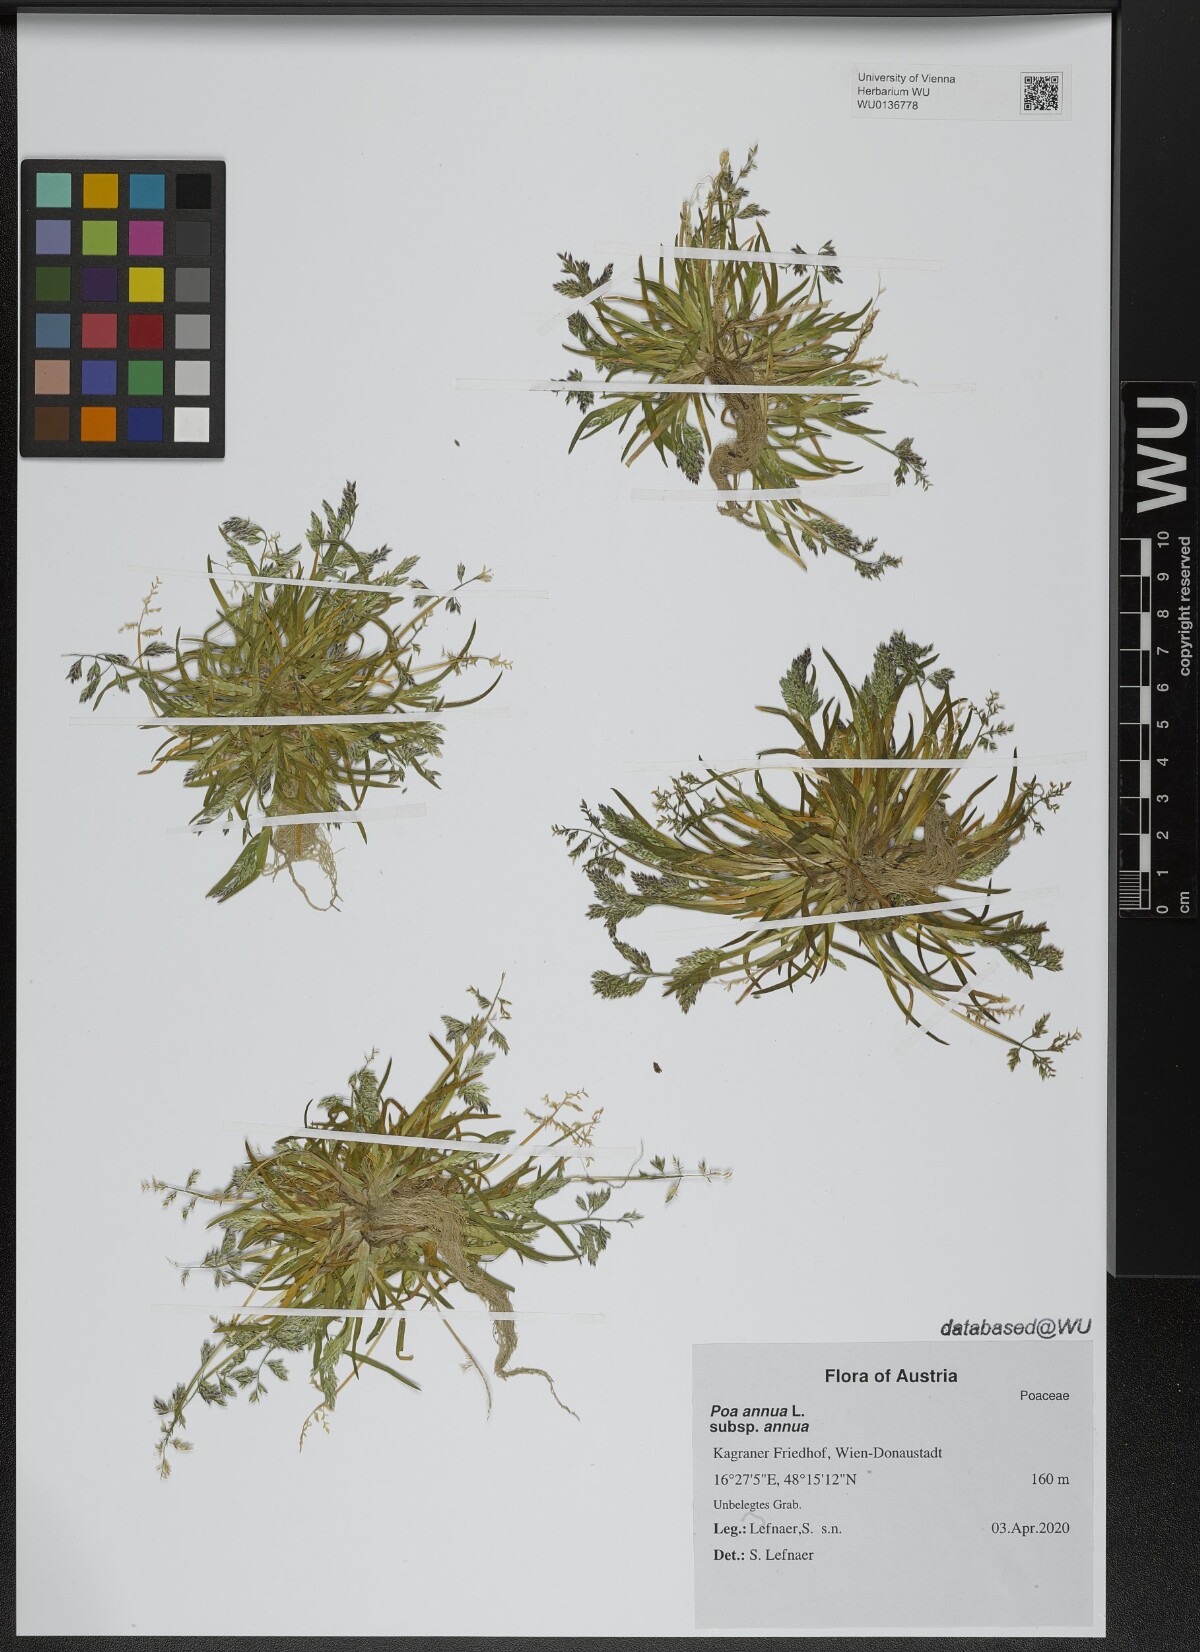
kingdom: Plantae
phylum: Tracheophyta
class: Liliopsida
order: Poales
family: Poaceae
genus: Poa
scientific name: Poa annua
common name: Annual bluegrass
